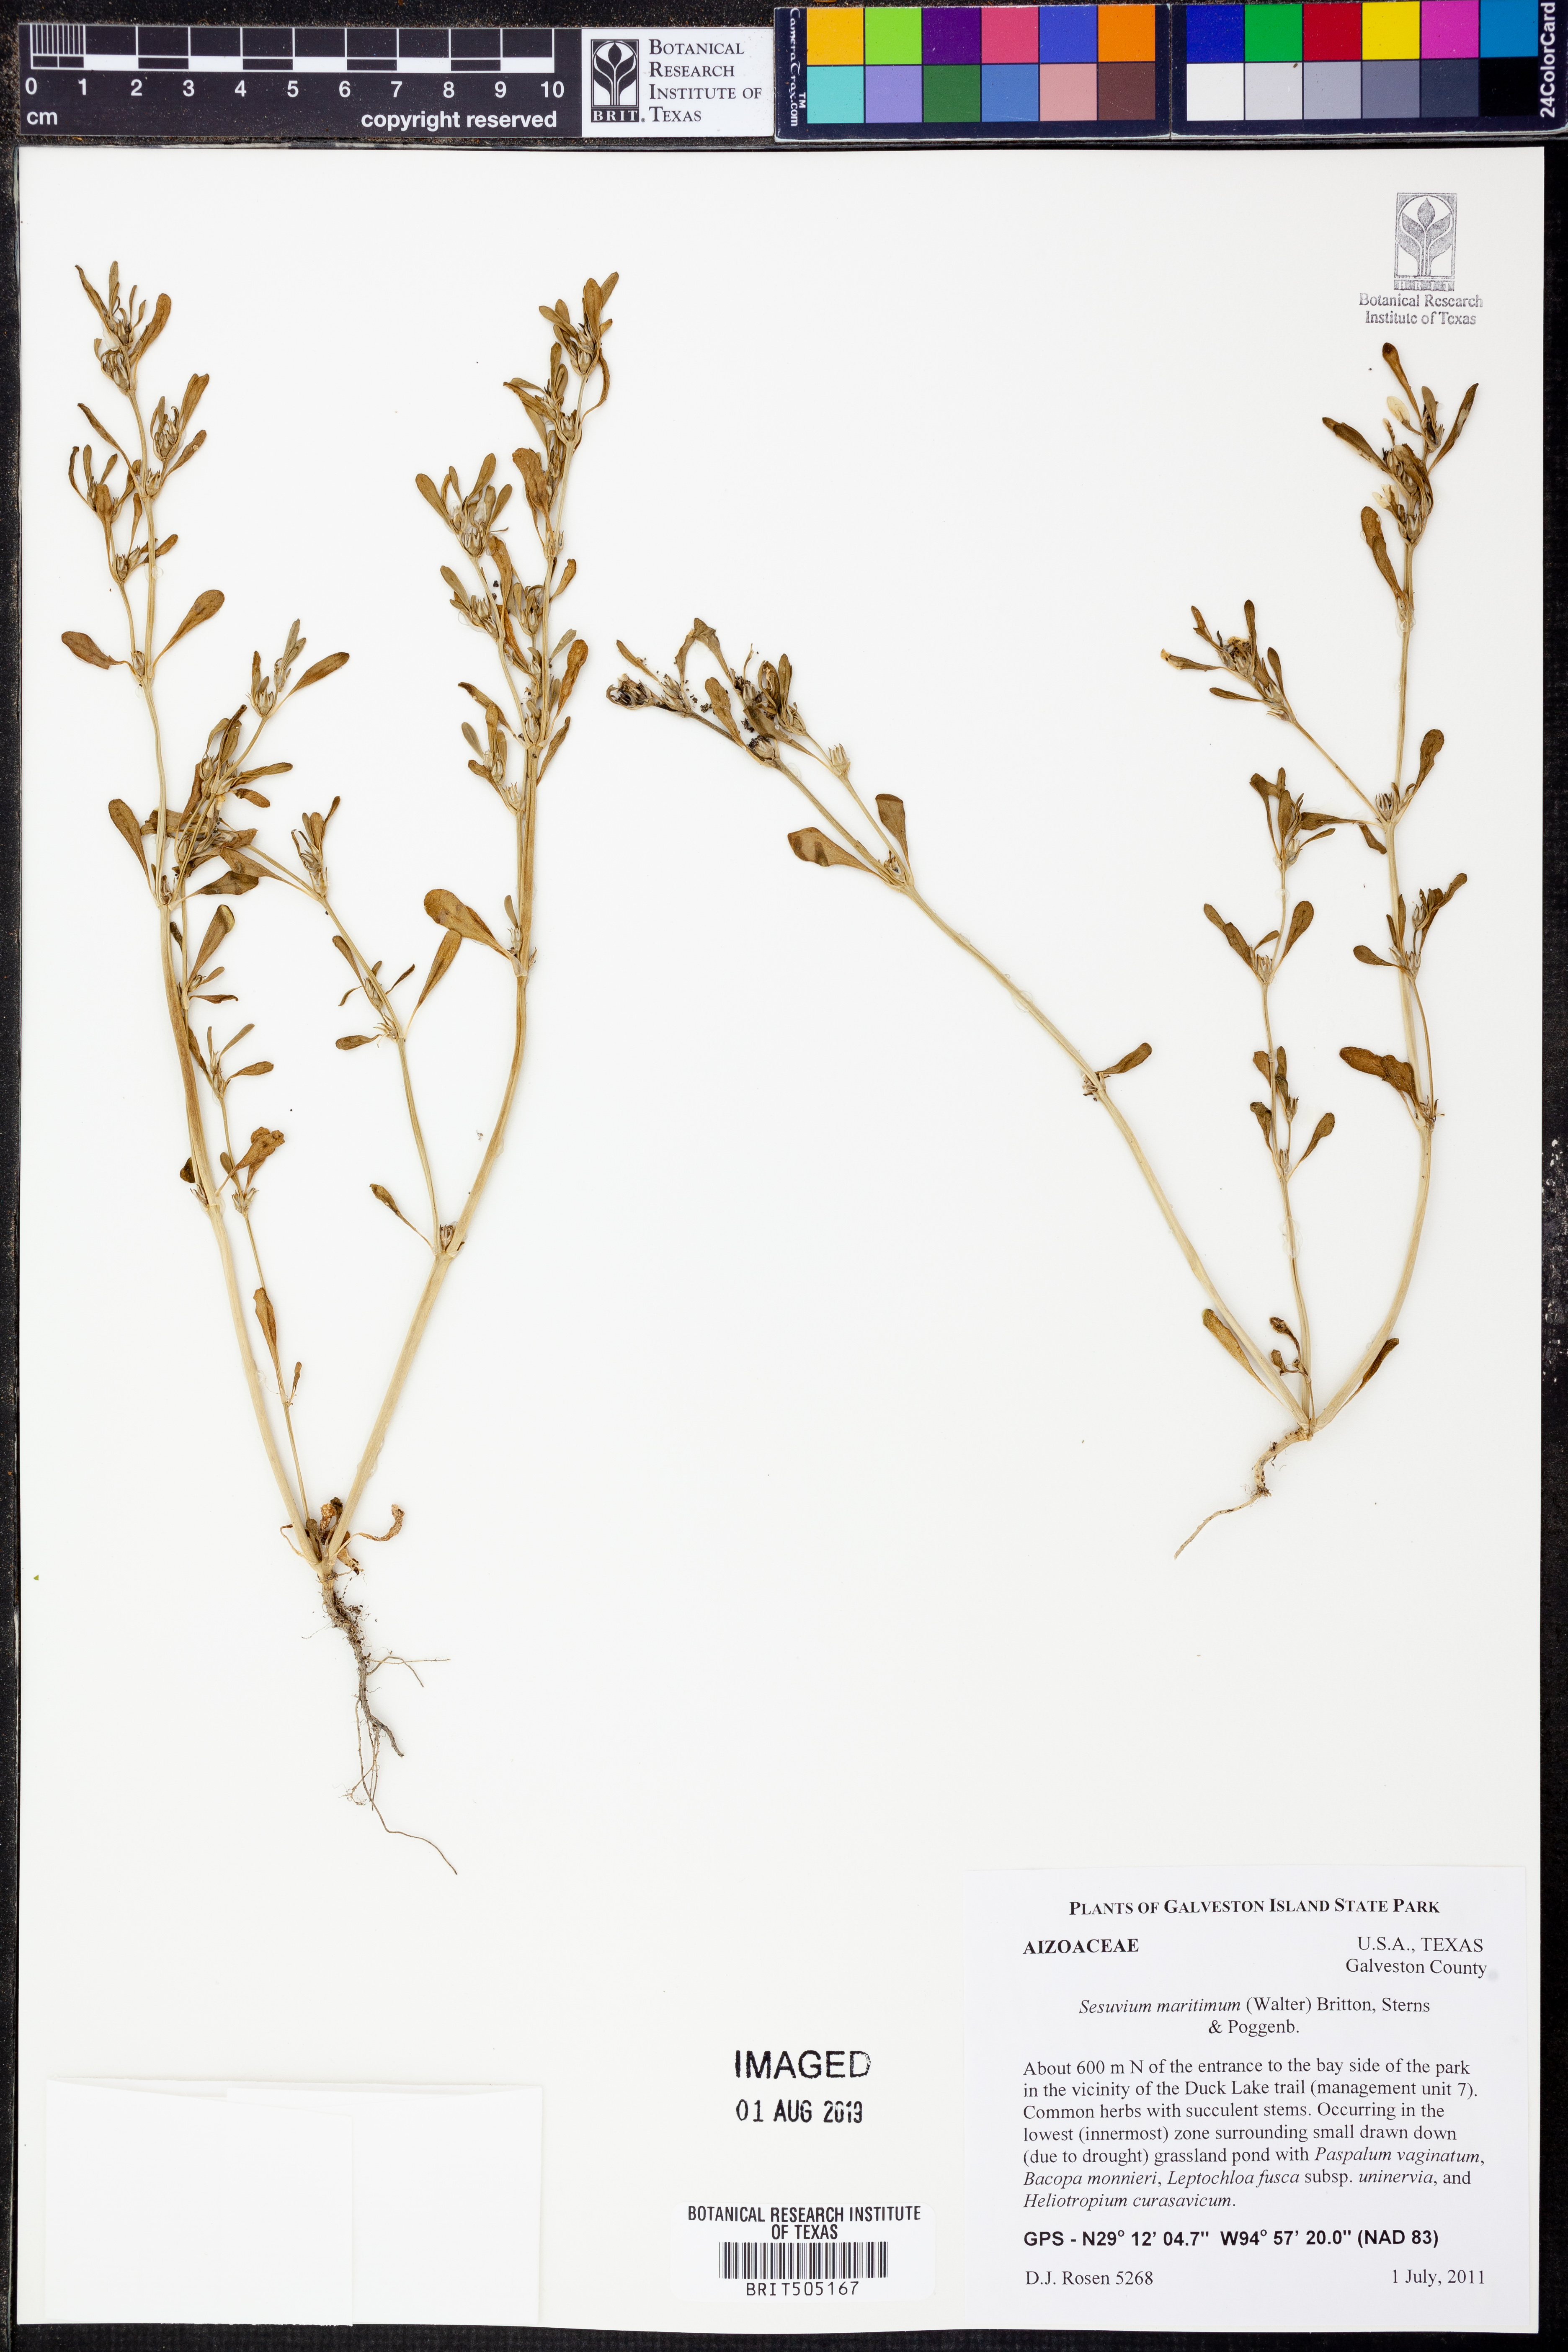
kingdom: Plantae
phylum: Tracheophyta
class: Magnoliopsida
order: Caryophyllales
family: Aizoaceae
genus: Sesuvium
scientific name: Sesuvium maritimum
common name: Slender sea-purslane
